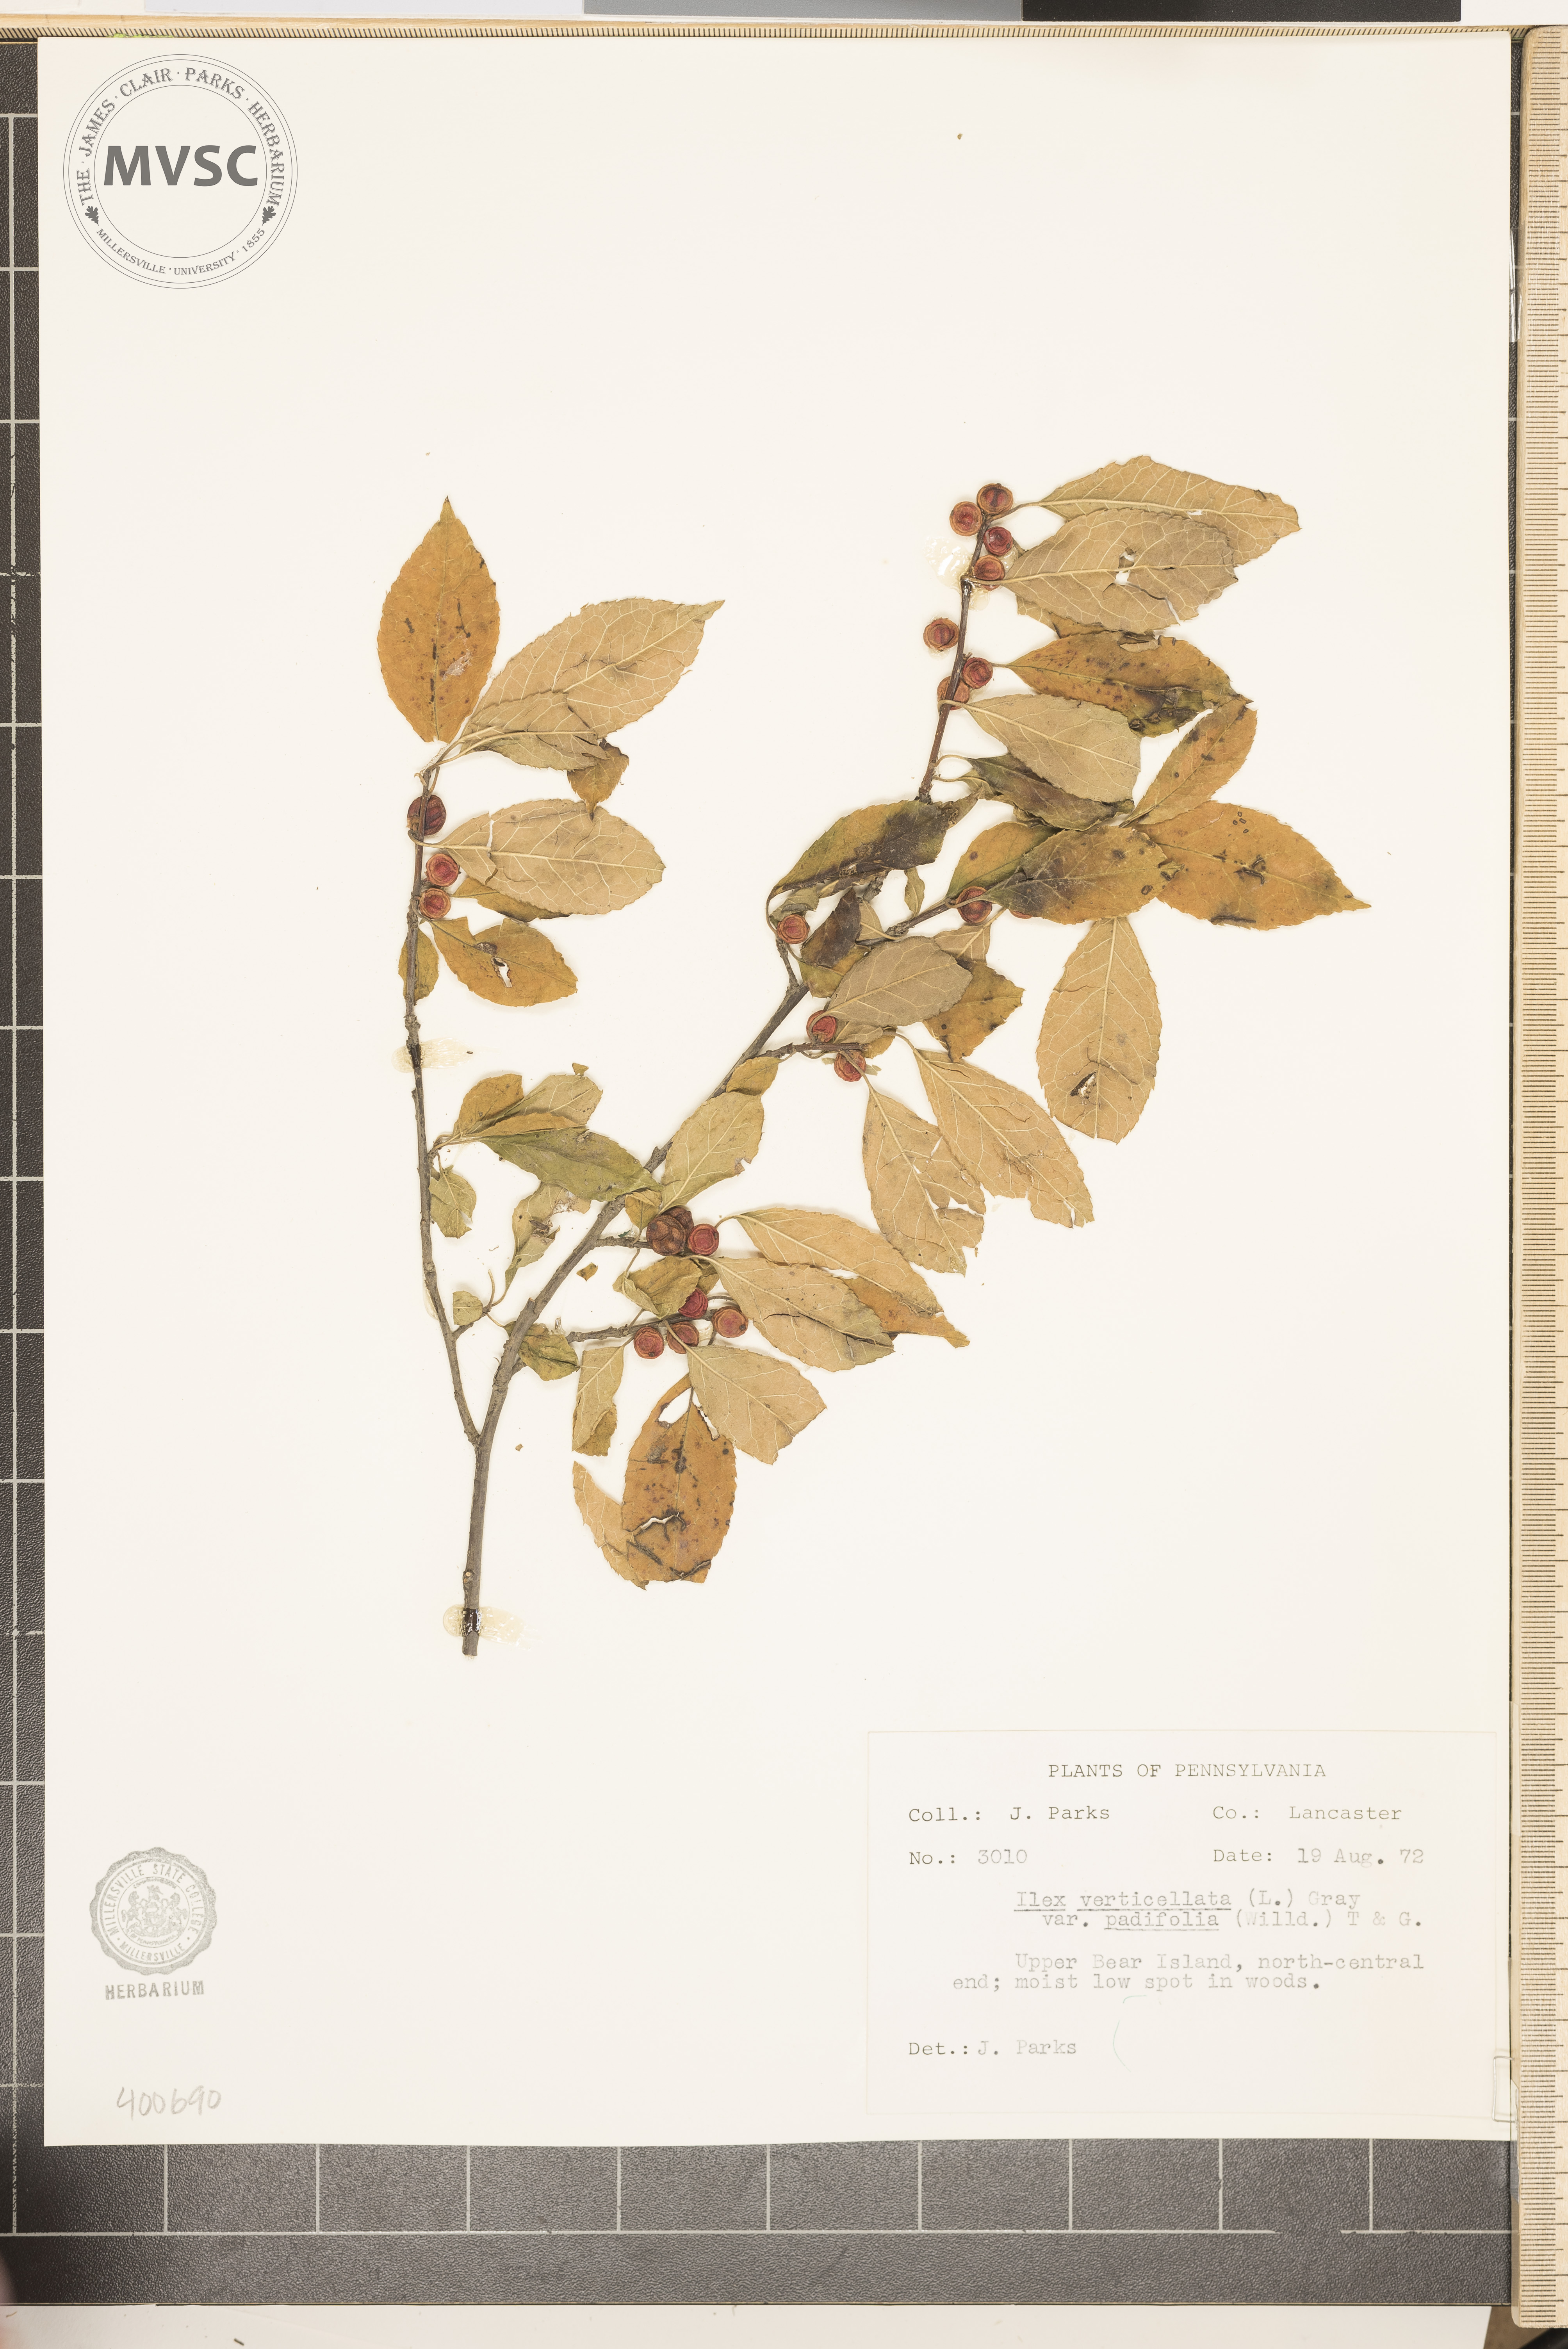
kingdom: Plantae
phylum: Tracheophyta
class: Magnoliopsida
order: Aquifoliales
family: Aquifoliaceae
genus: Ilex
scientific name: Ilex verticillata
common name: Virginia winterberry
